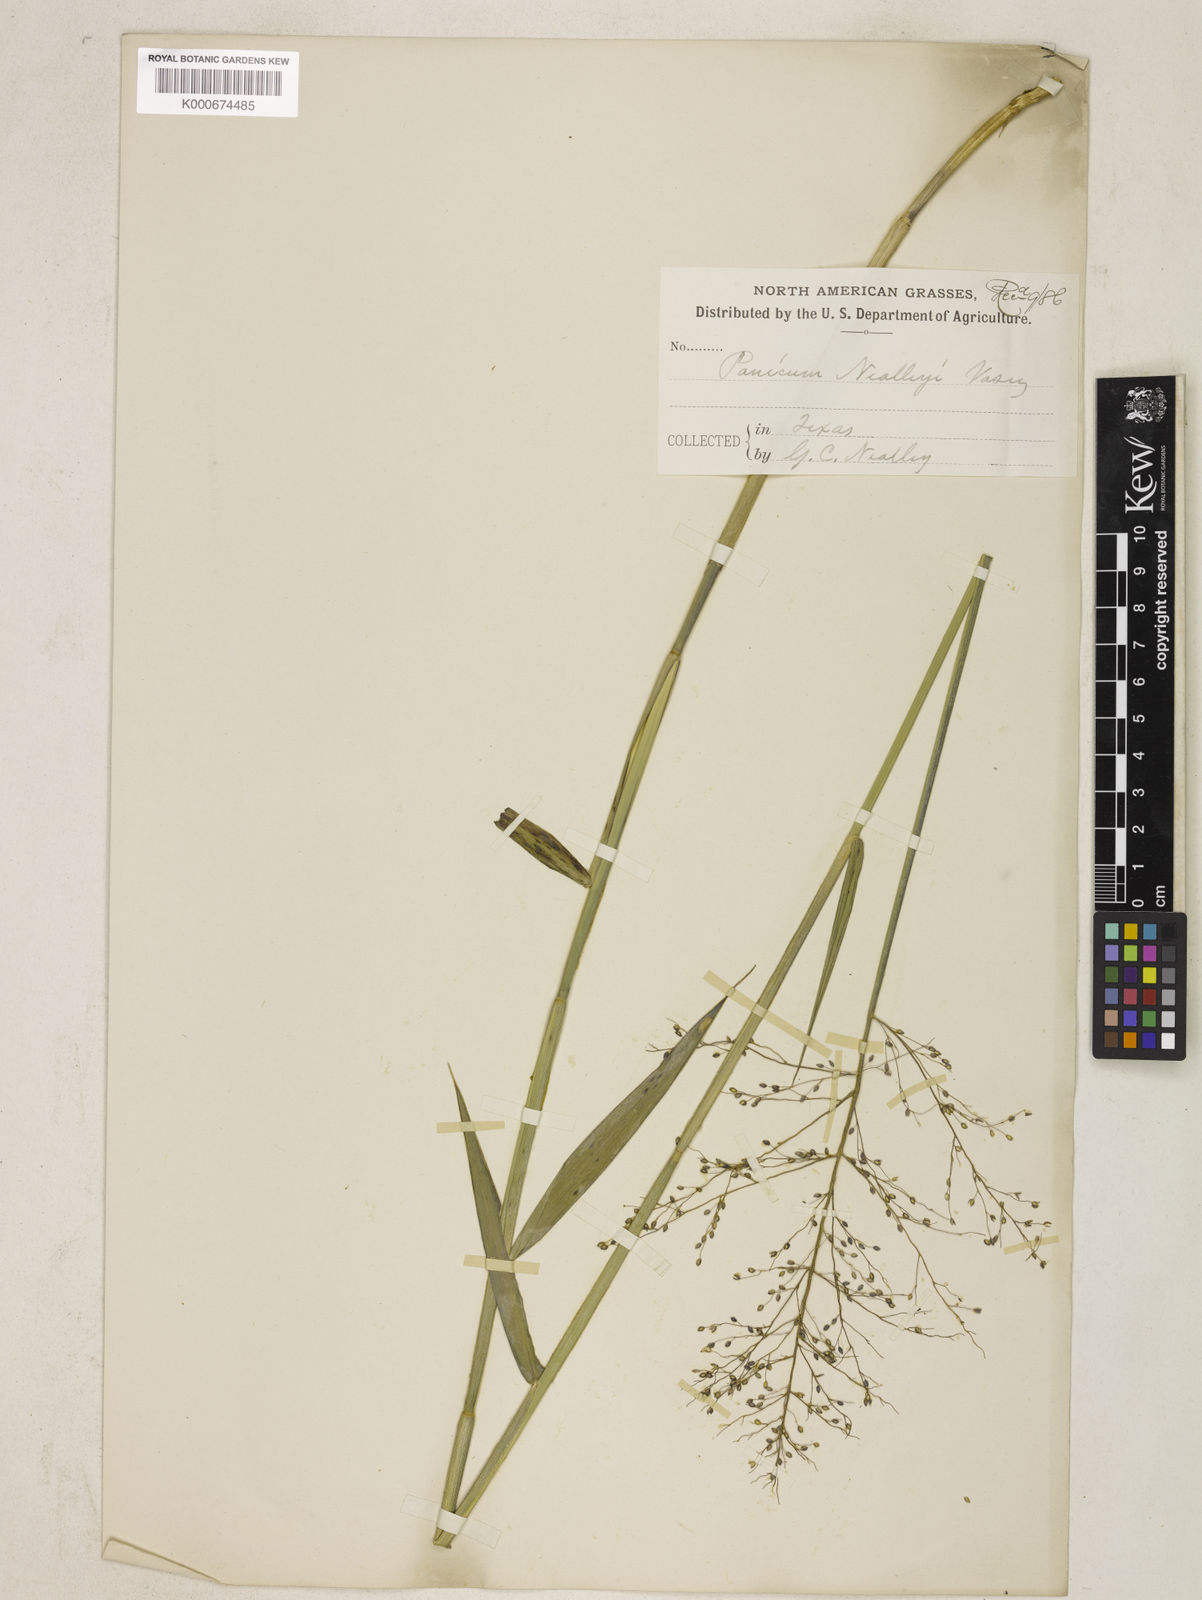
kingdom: Plantae
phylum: Tracheophyta
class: Liliopsida
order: Poales
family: Poaceae
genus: Dichanthelium
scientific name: Dichanthelium scabriusculum
